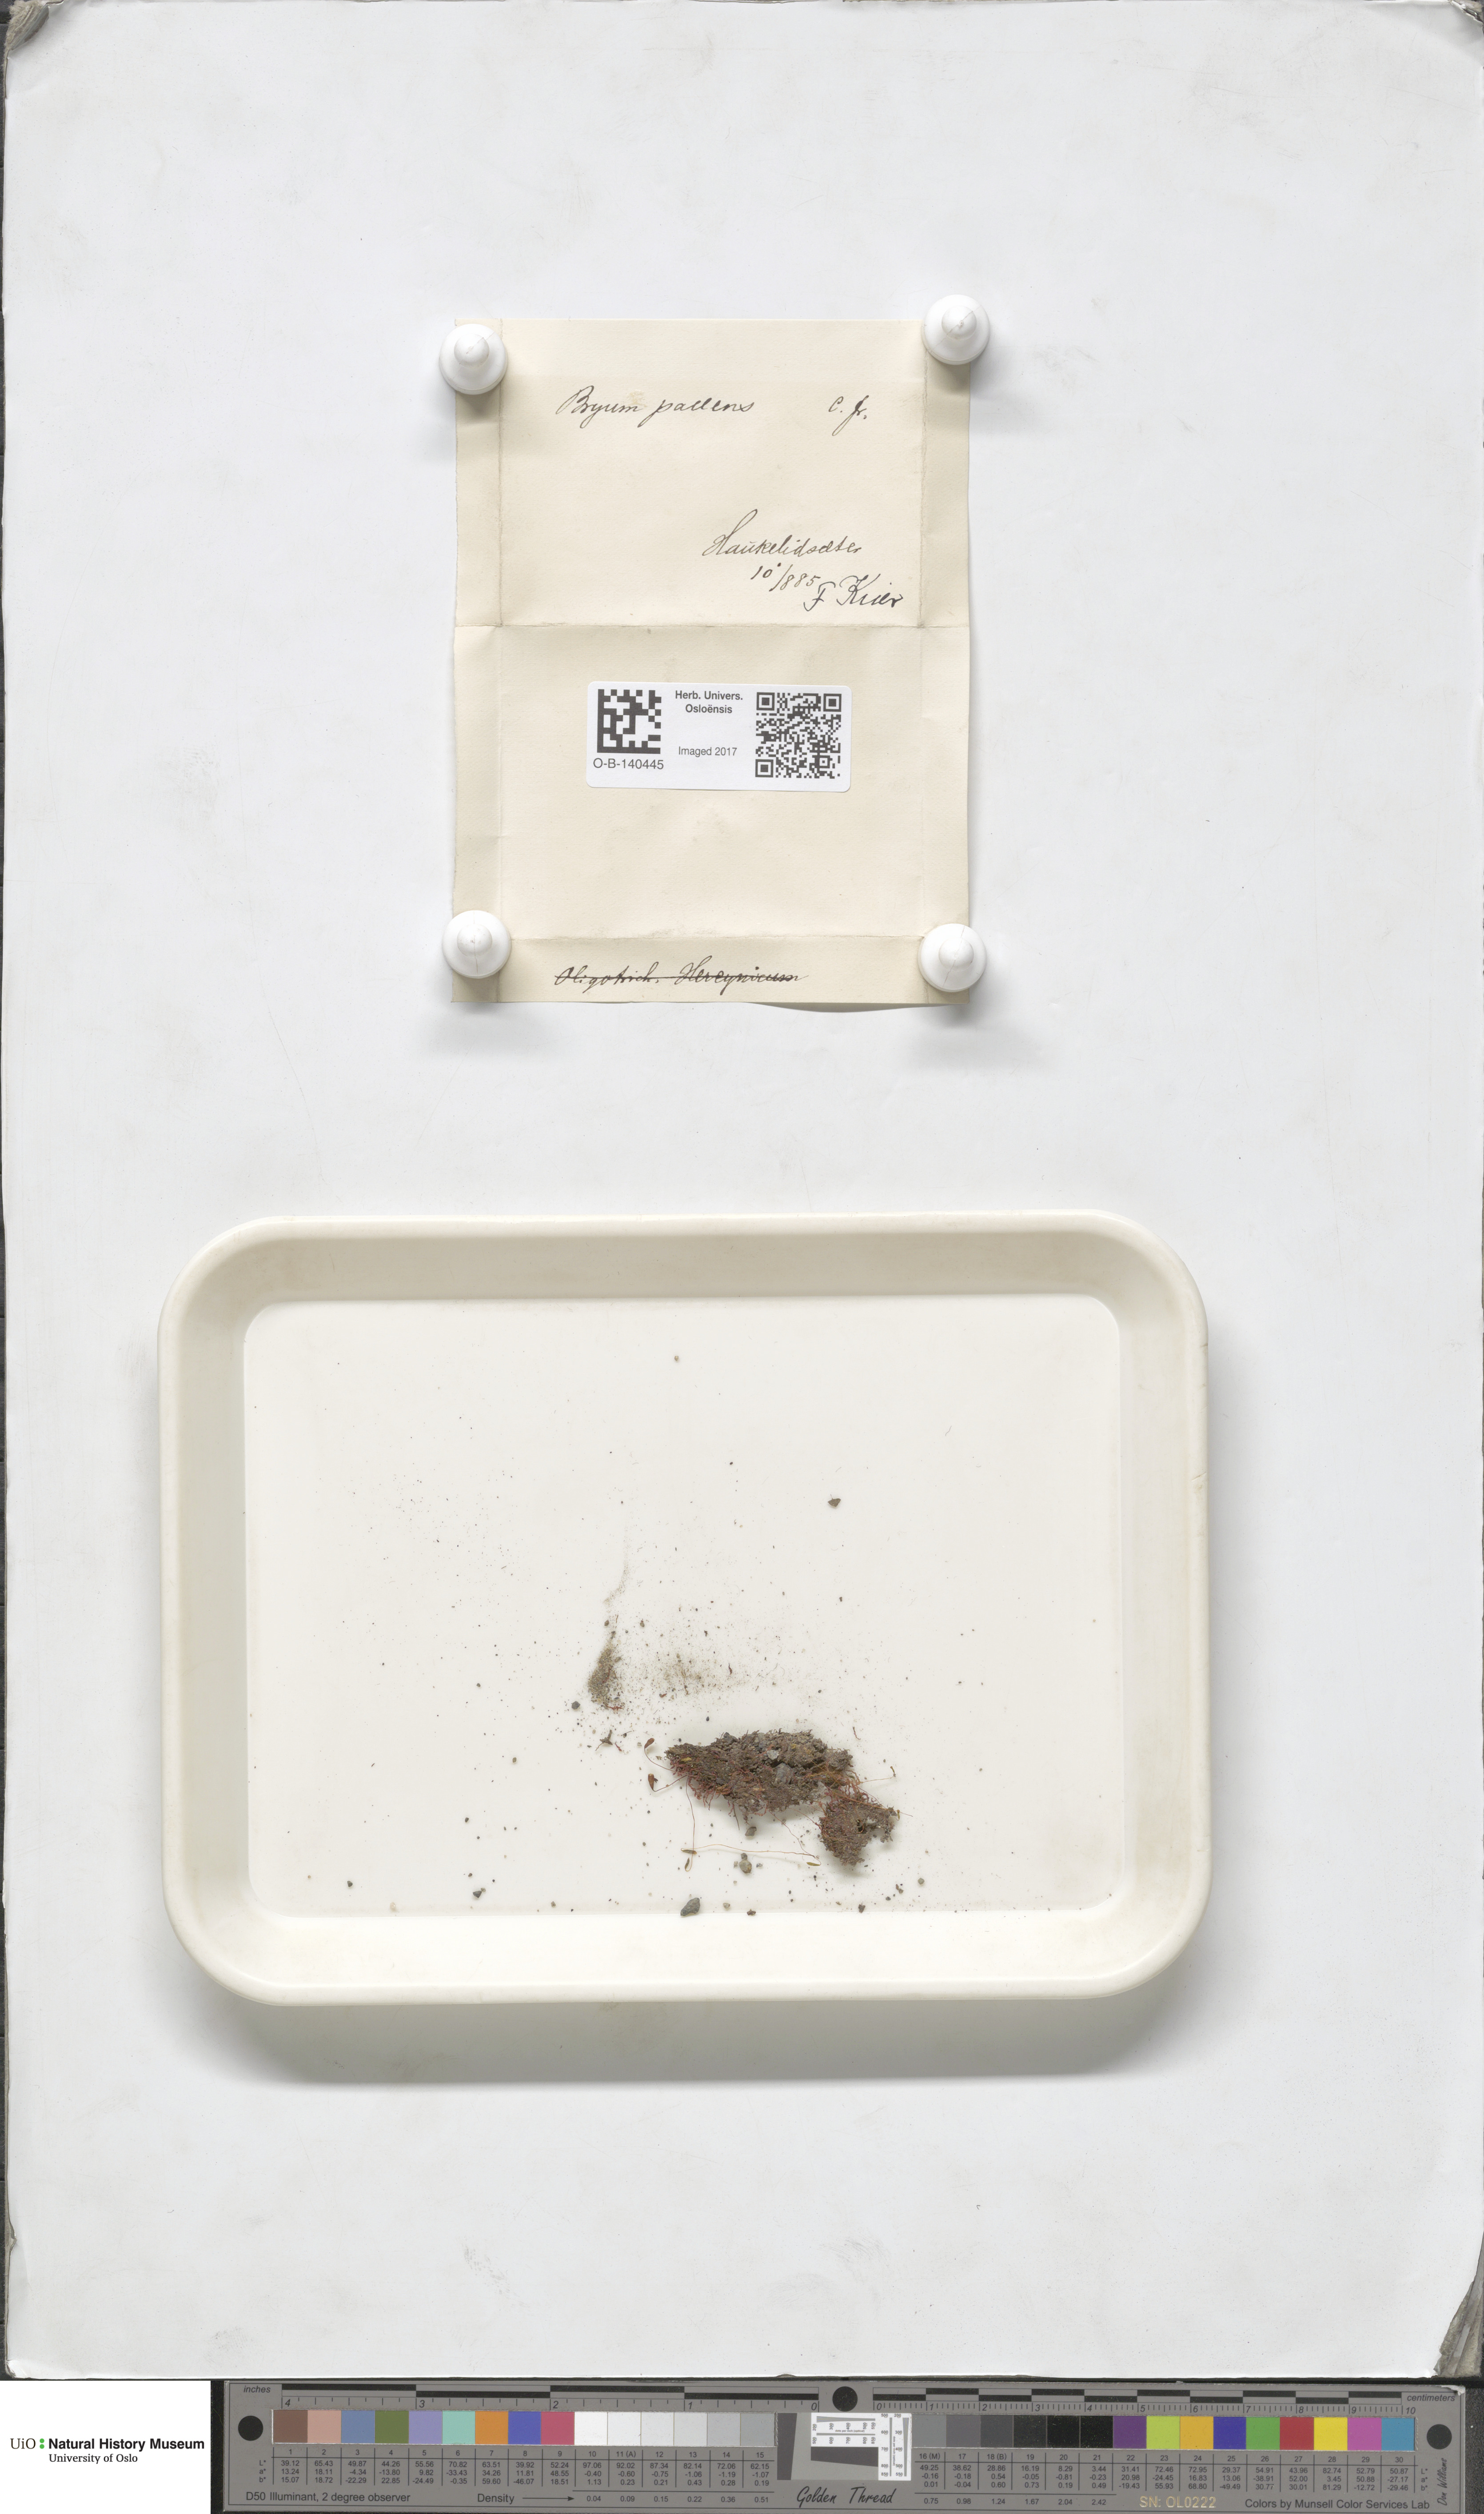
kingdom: Plantae
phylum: Bryophyta
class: Bryopsida
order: Bryales
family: Bryaceae
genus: Ptychostomum
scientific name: Ptychostomum pallens
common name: Pale thread-moss
